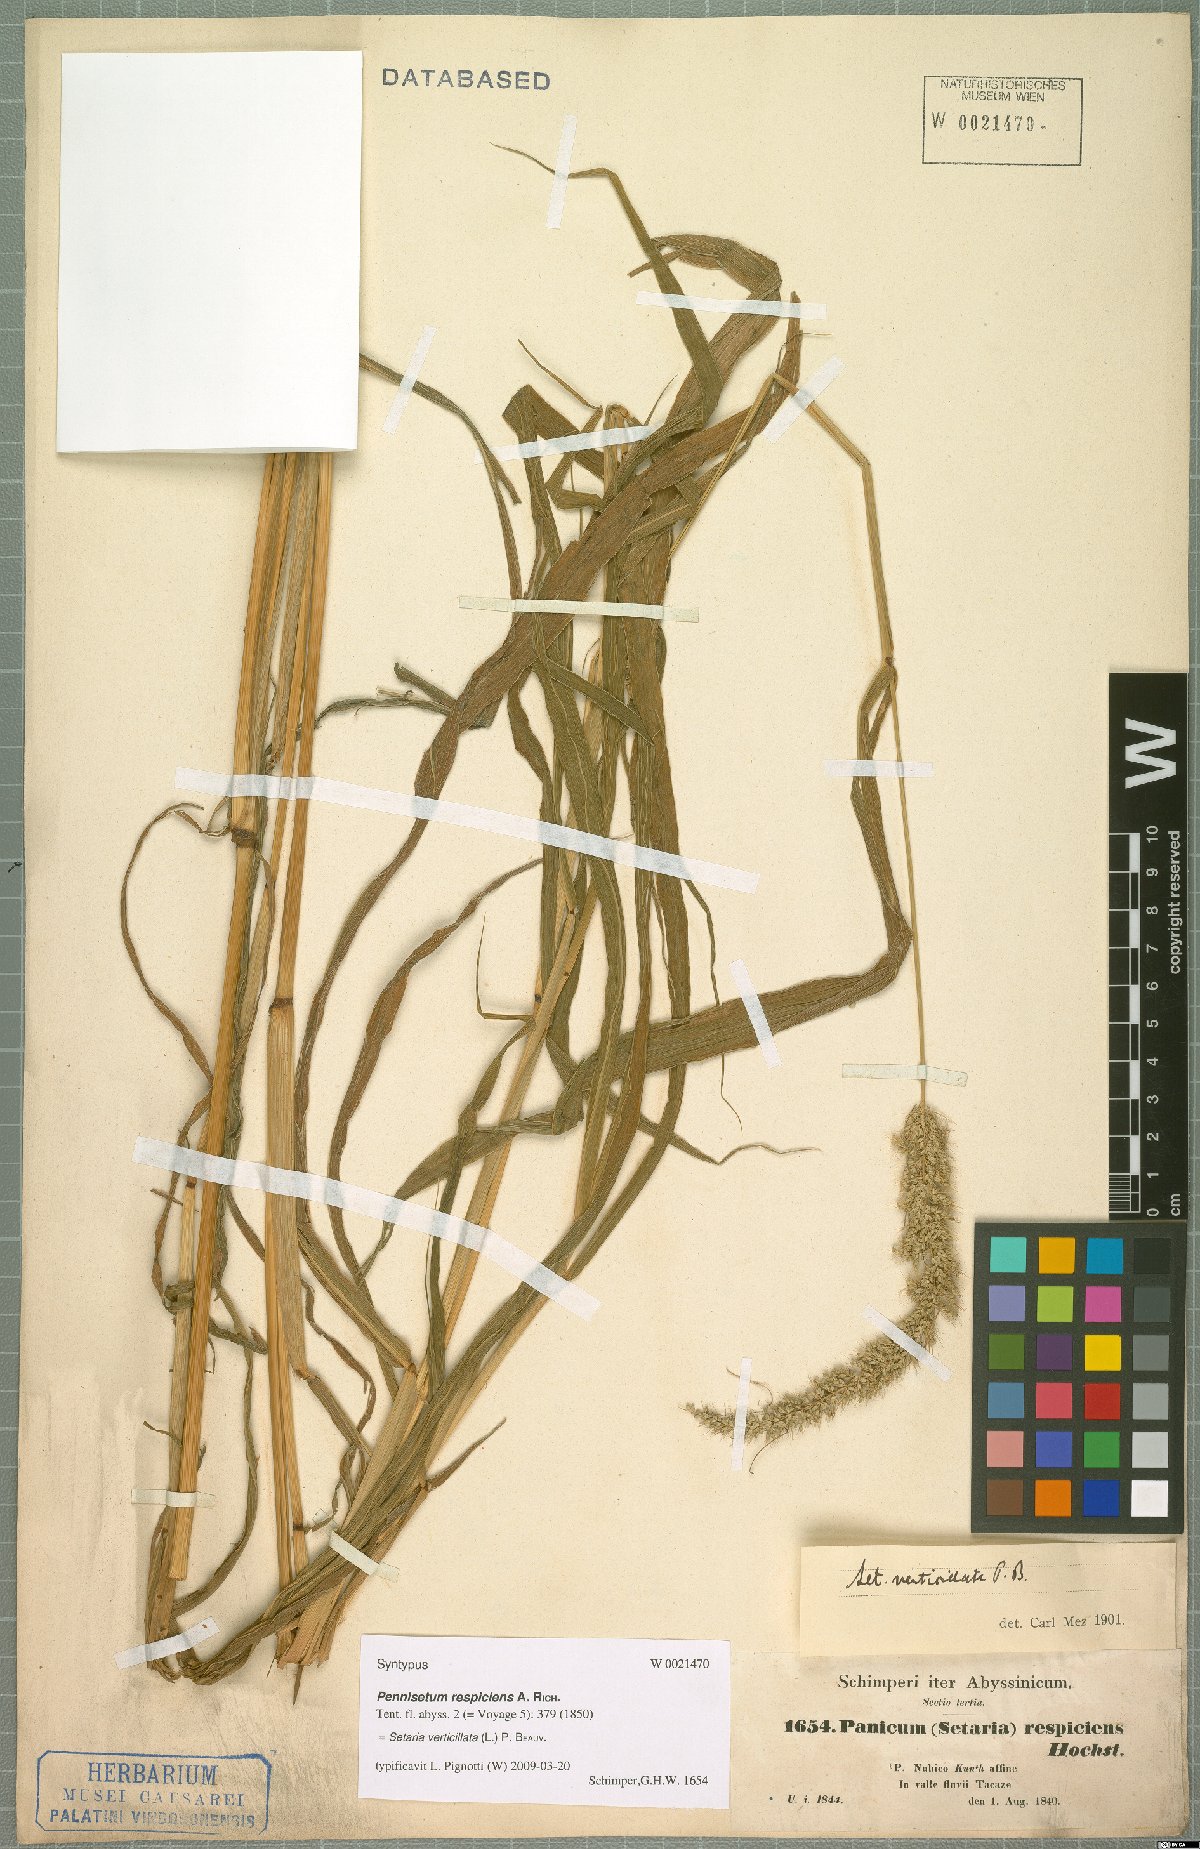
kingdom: Plantae
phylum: Tracheophyta
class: Liliopsida
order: Poales
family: Poaceae
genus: Setaria
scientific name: Setaria verticillata
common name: Hooked bristlegrass
